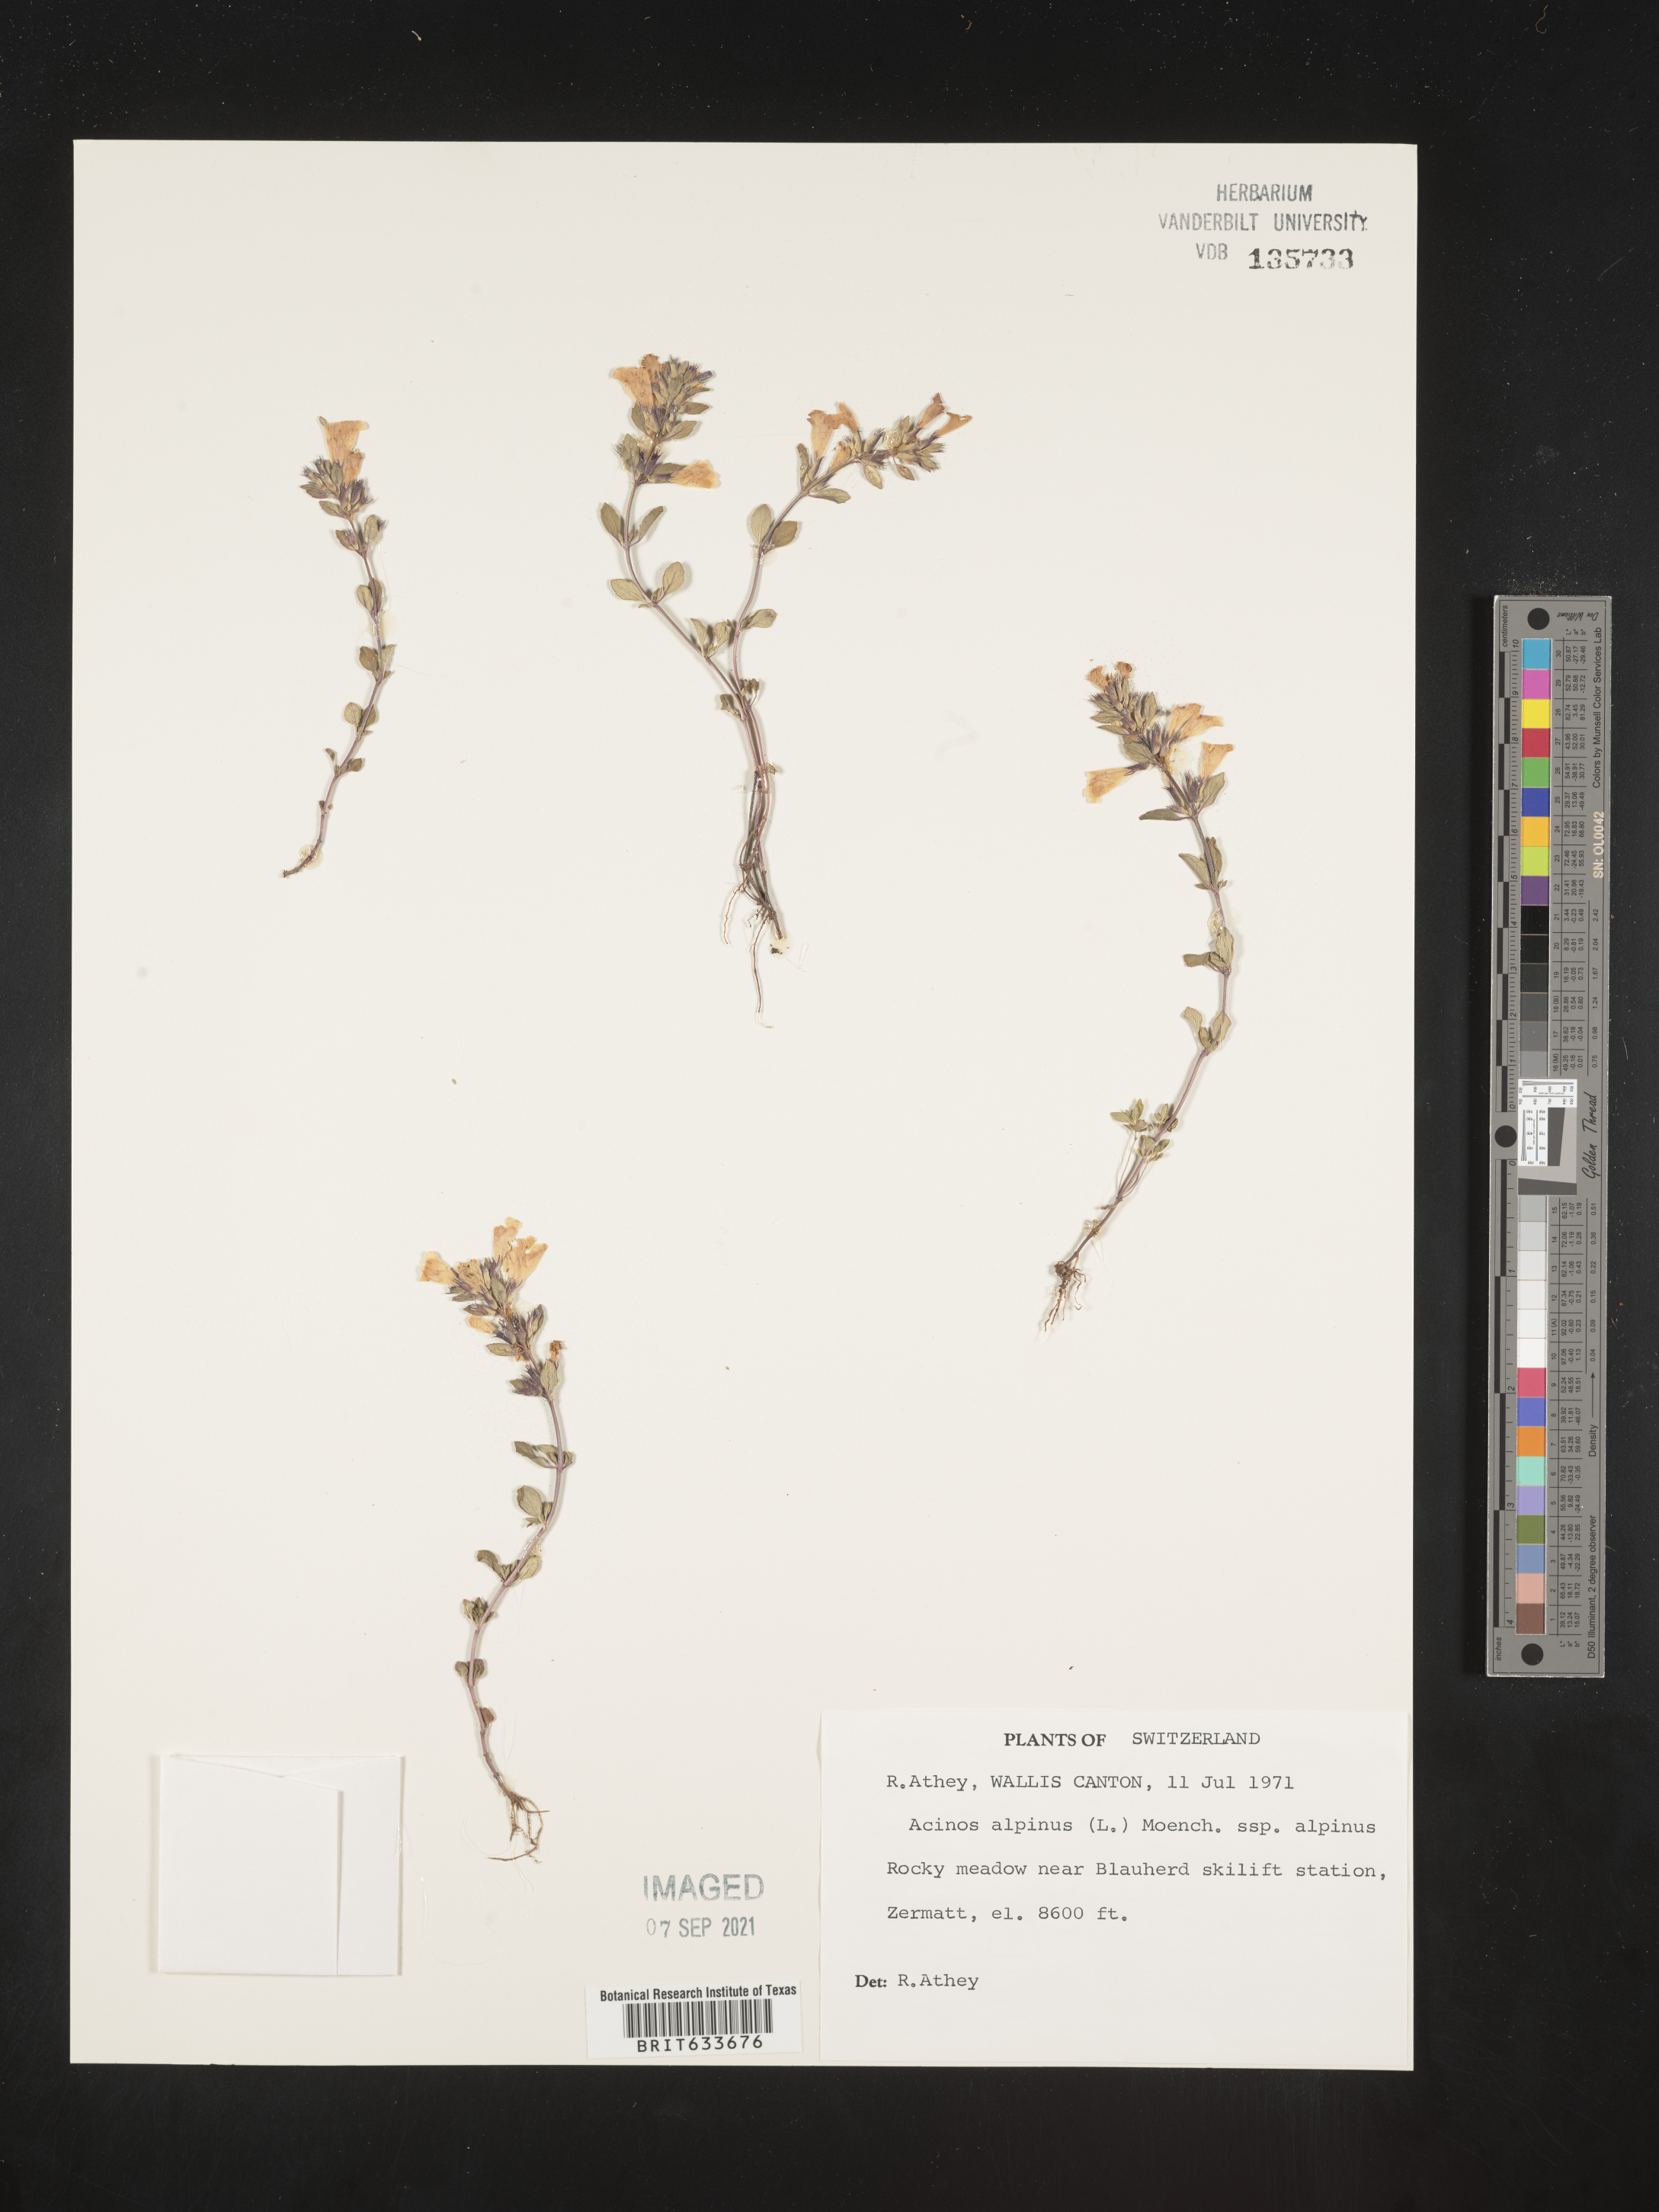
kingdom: Plantae
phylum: Tracheophyta
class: Magnoliopsida
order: Lamiales
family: Lamiaceae
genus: Acinos
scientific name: Acinos
